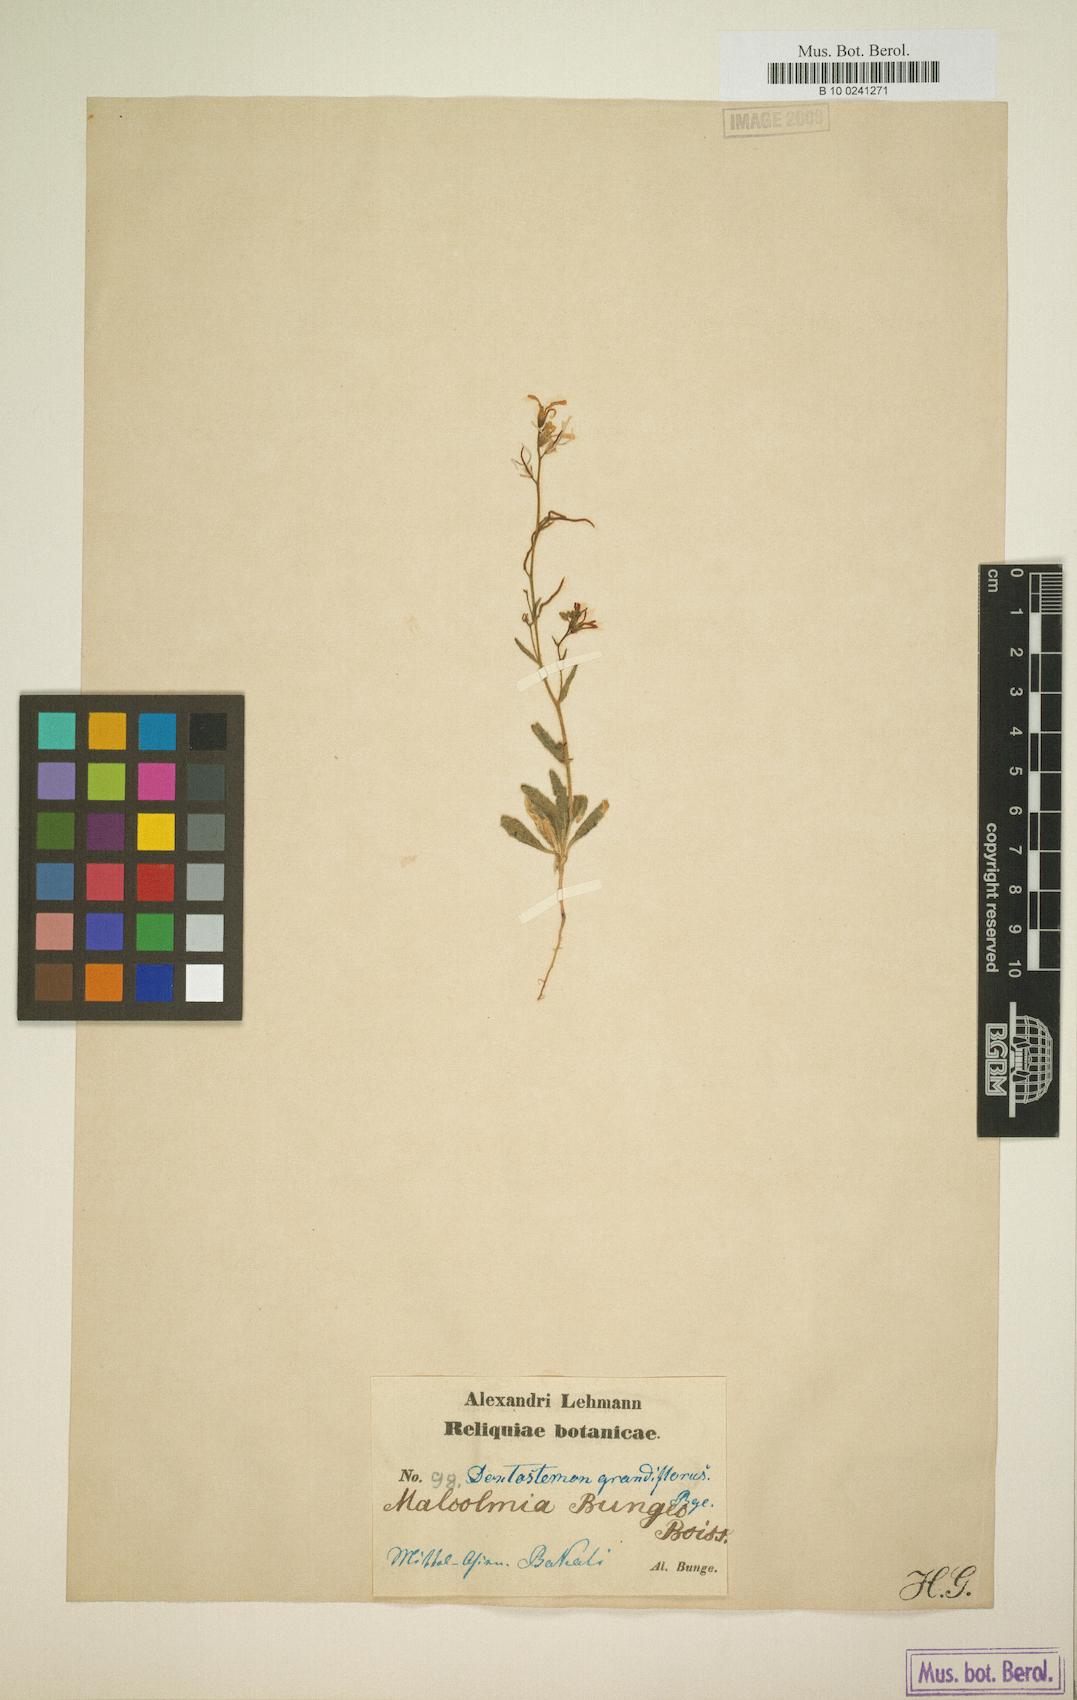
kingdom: Plantae
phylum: Tracheophyta
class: Magnoliopsida
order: Brassicales
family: Brassicaceae
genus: Strigosella
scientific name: Strigosella grandiflora
